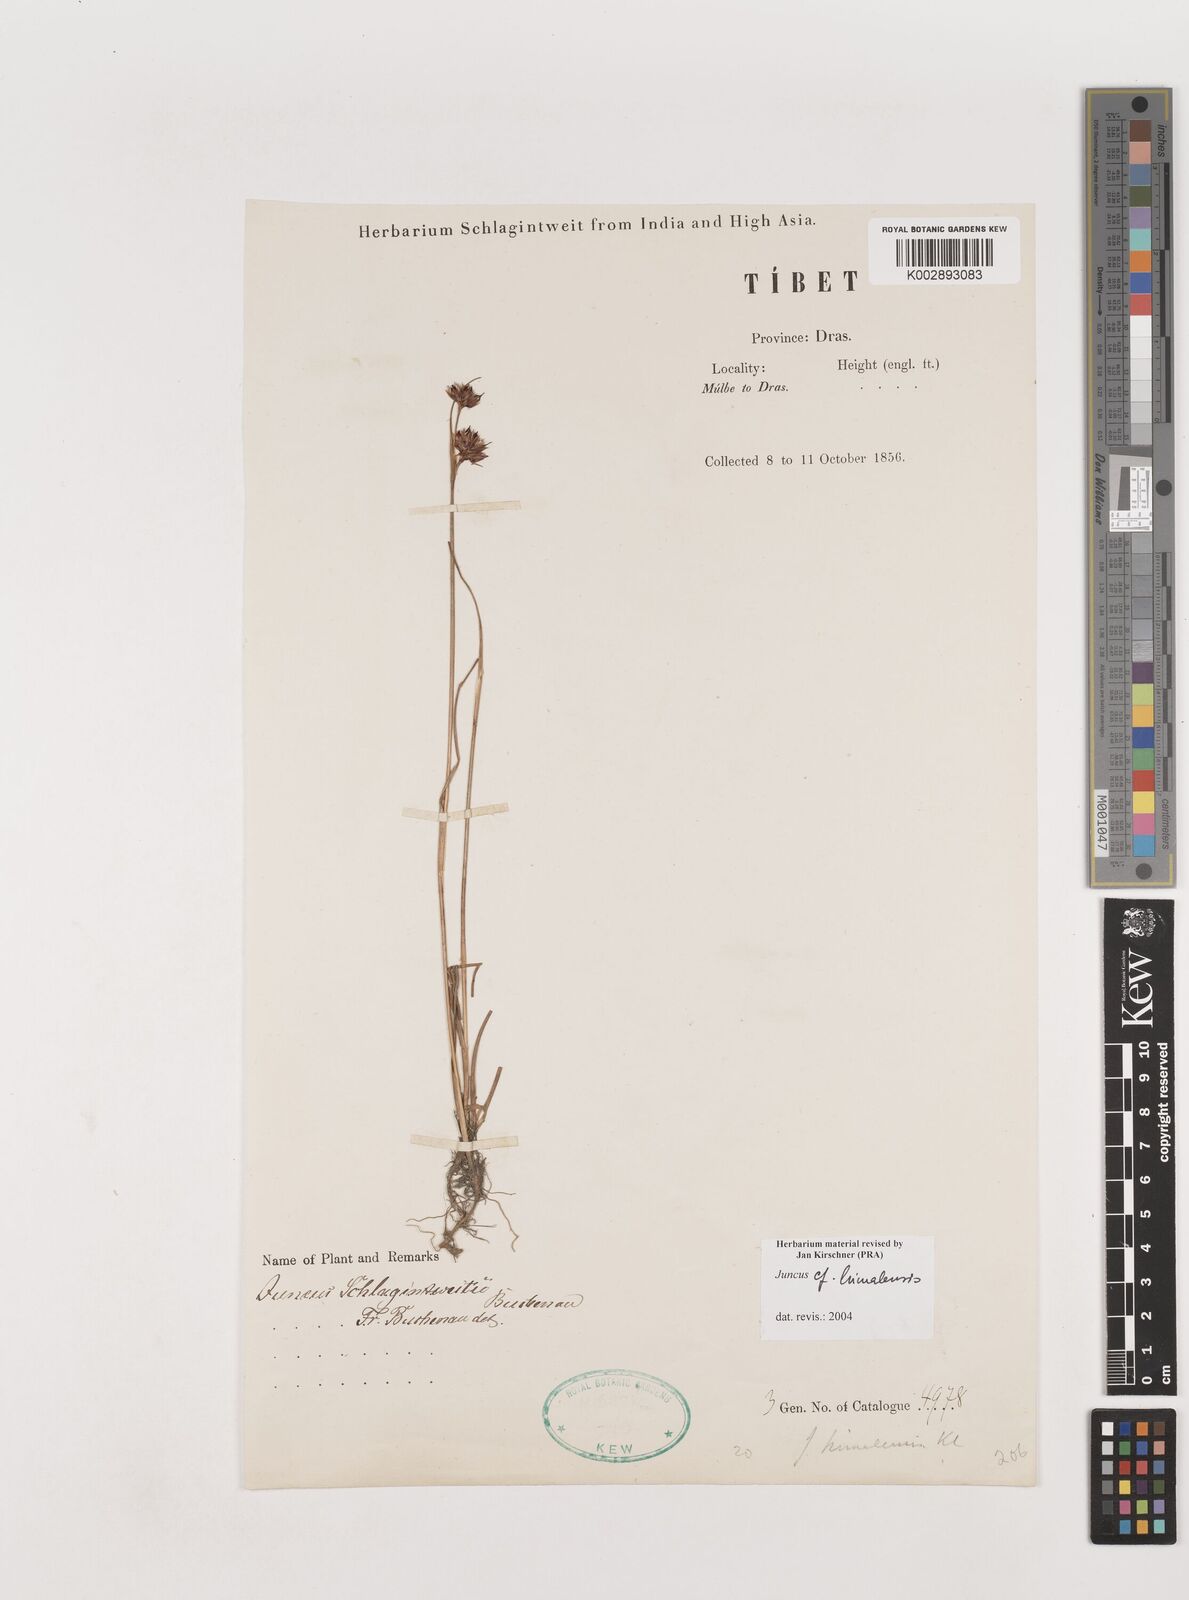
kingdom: Plantae
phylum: Tracheophyta
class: Liliopsida
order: Poales
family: Juncaceae
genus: Juncus
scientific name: Juncus
